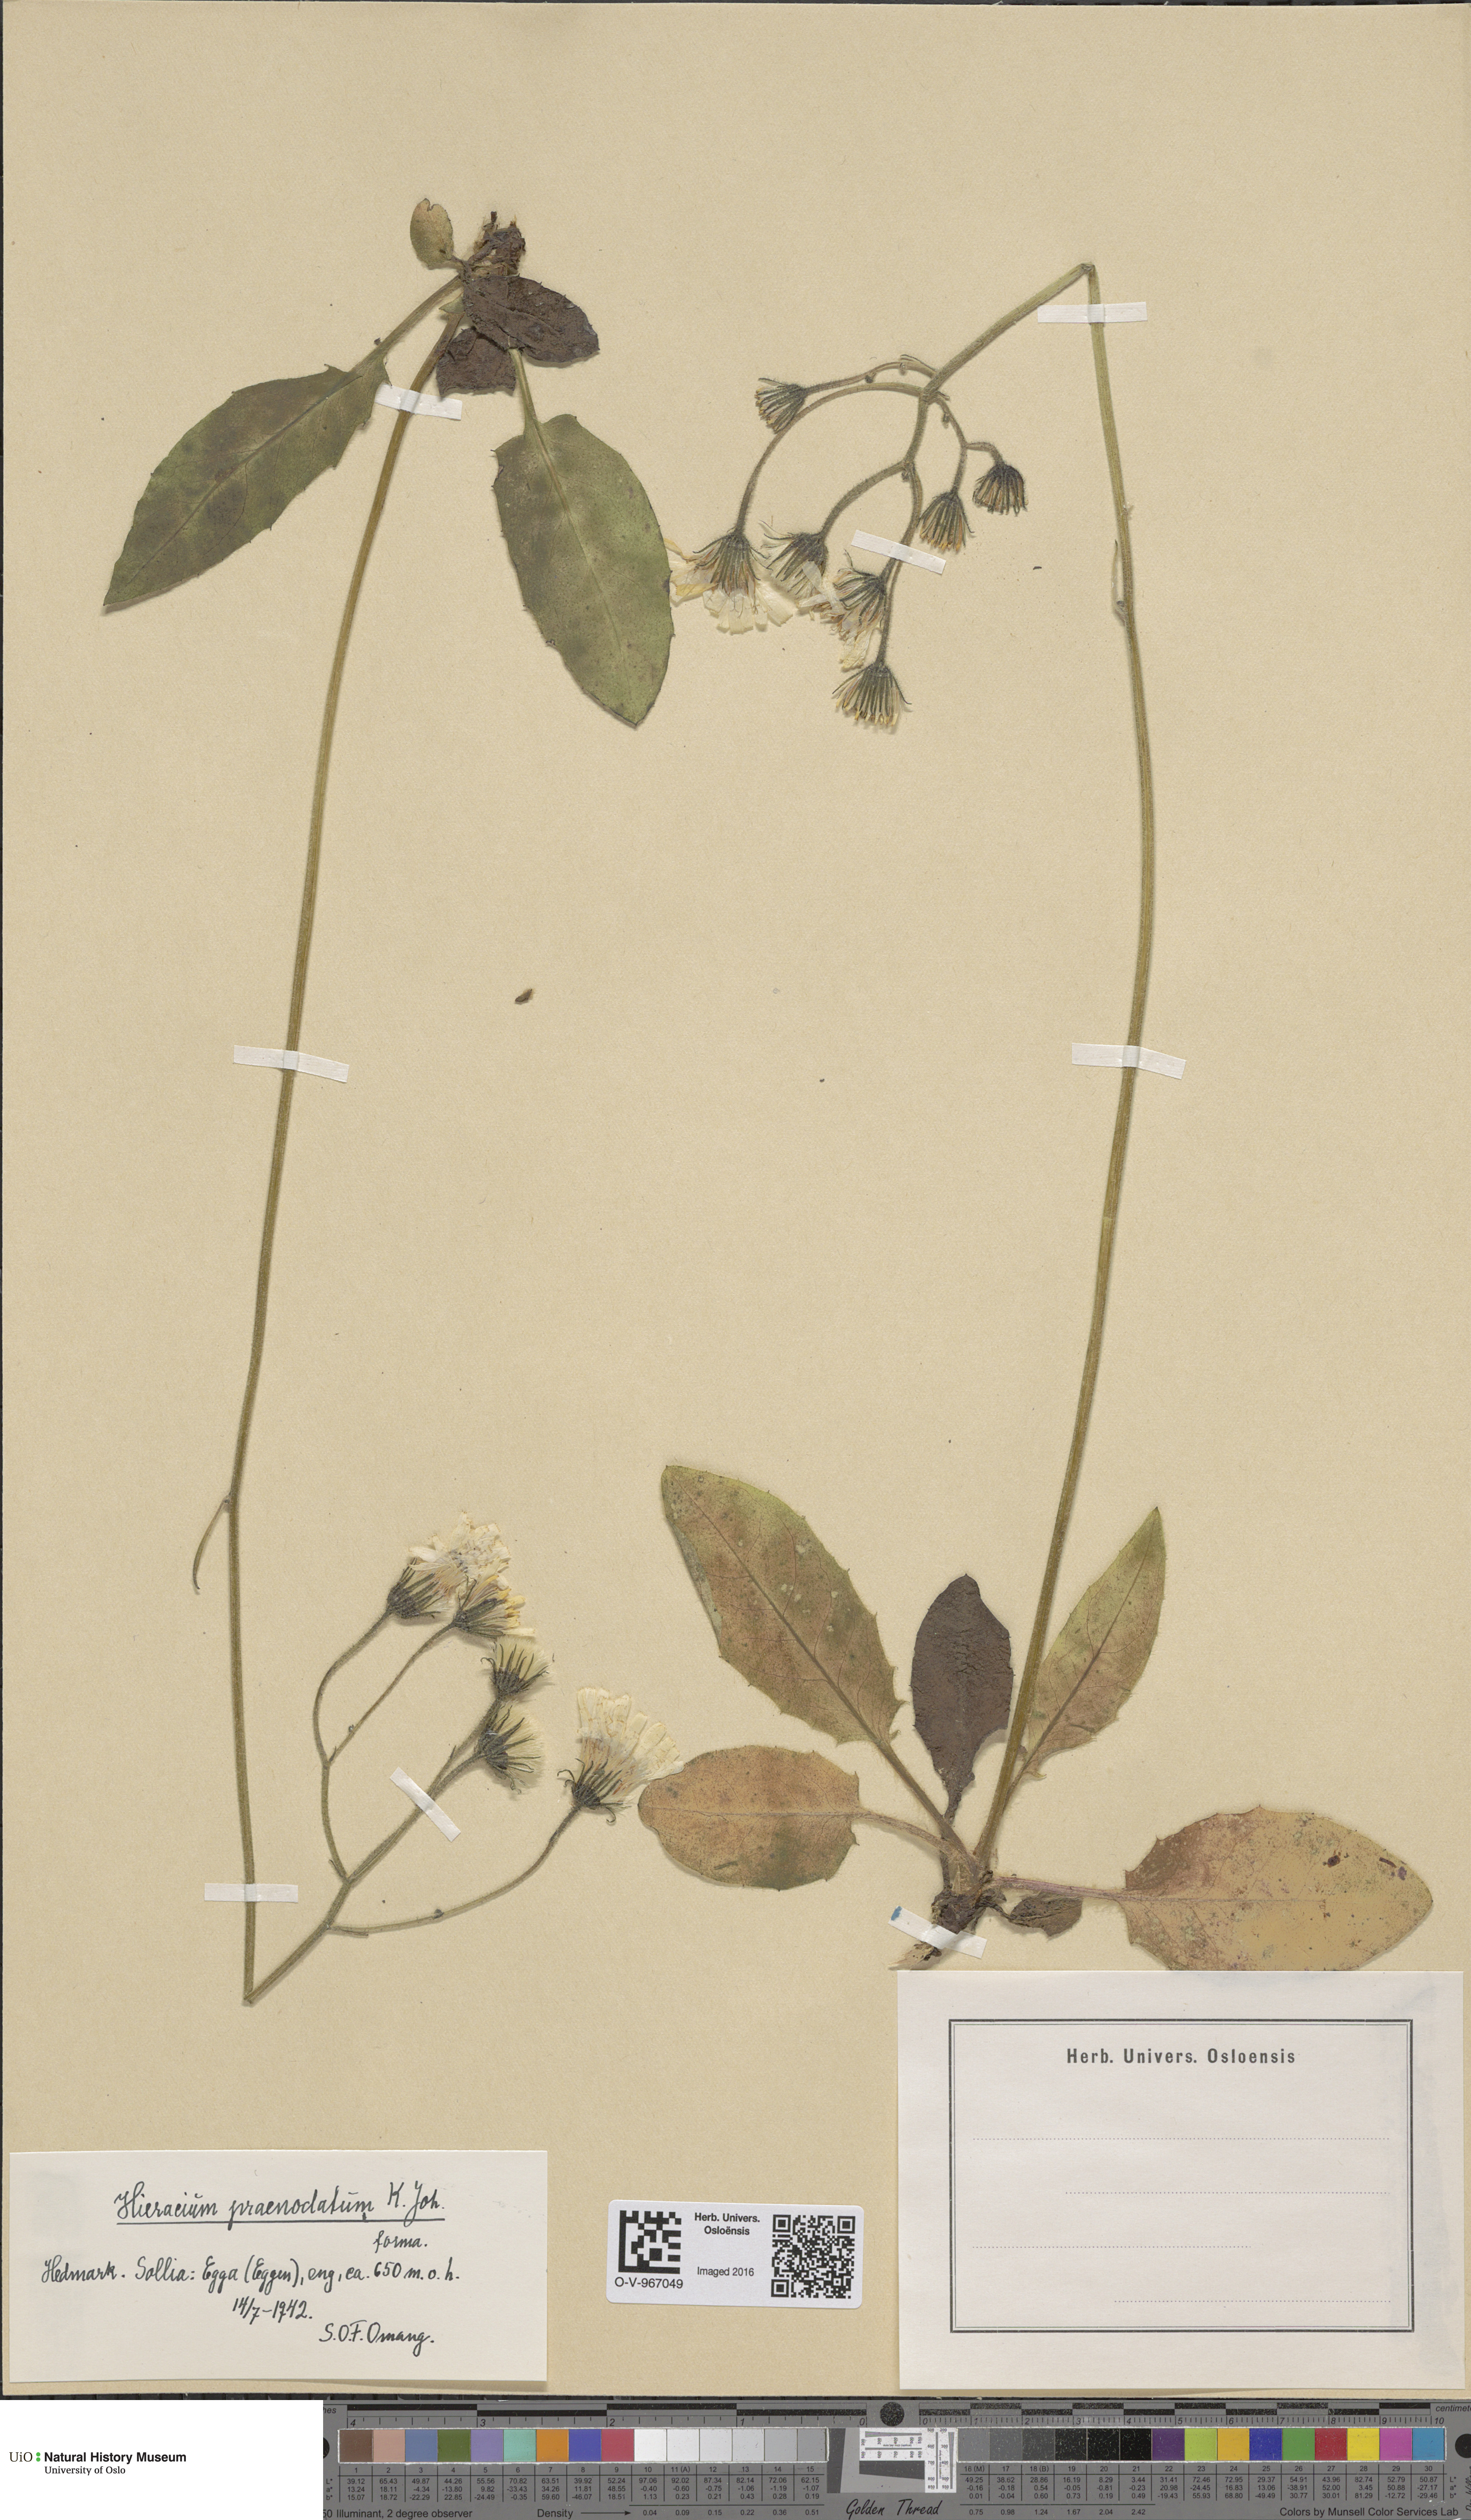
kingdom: Plantae
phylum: Tracheophyta
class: Magnoliopsida
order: Asterales
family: Asteraceae
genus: Hieracium
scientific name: Hieracium praenodatum
